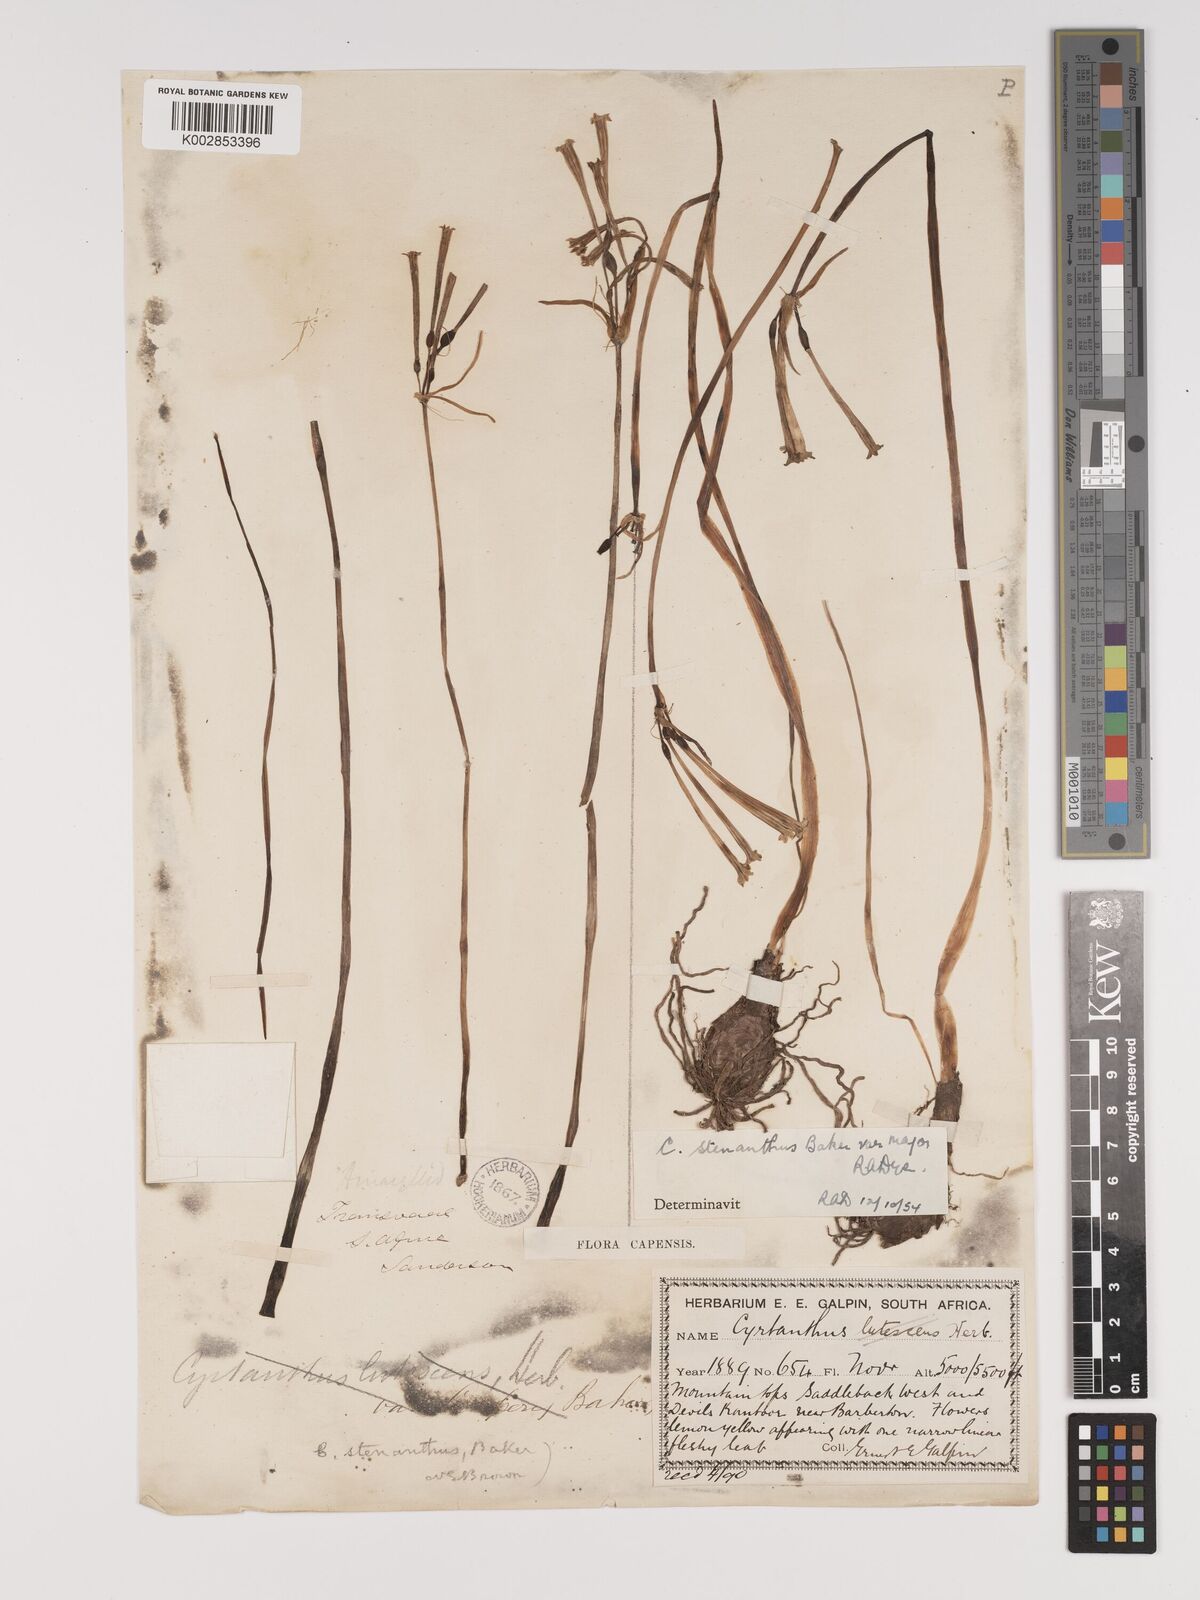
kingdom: Plantae
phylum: Tracheophyta
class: Liliopsida
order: Asparagales
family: Amaryllidaceae
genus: Cyrtanthus
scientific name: Cyrtanthus stenanthus
